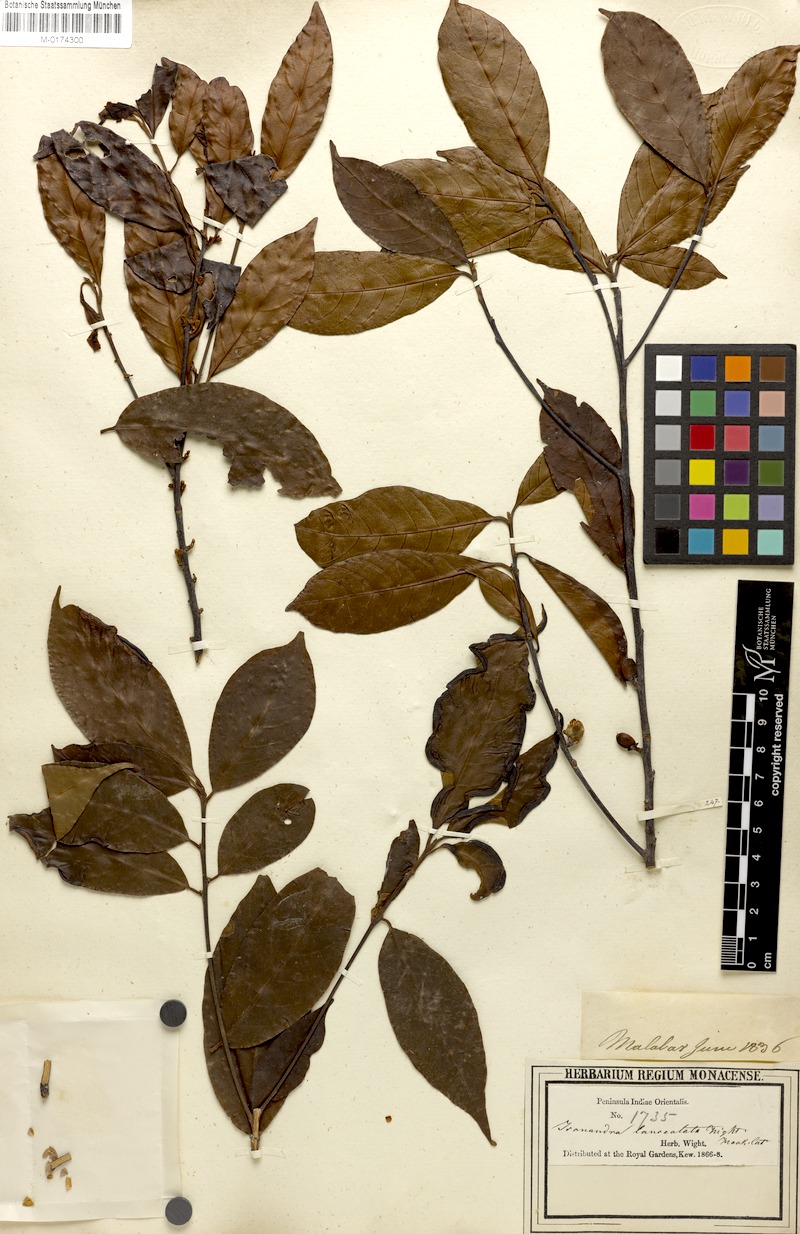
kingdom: Plantae
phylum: Tracheophyta
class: Magnoliopsida
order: Ericales
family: Sapotaceae
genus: Isonandra
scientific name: Isonandra lanceolata
